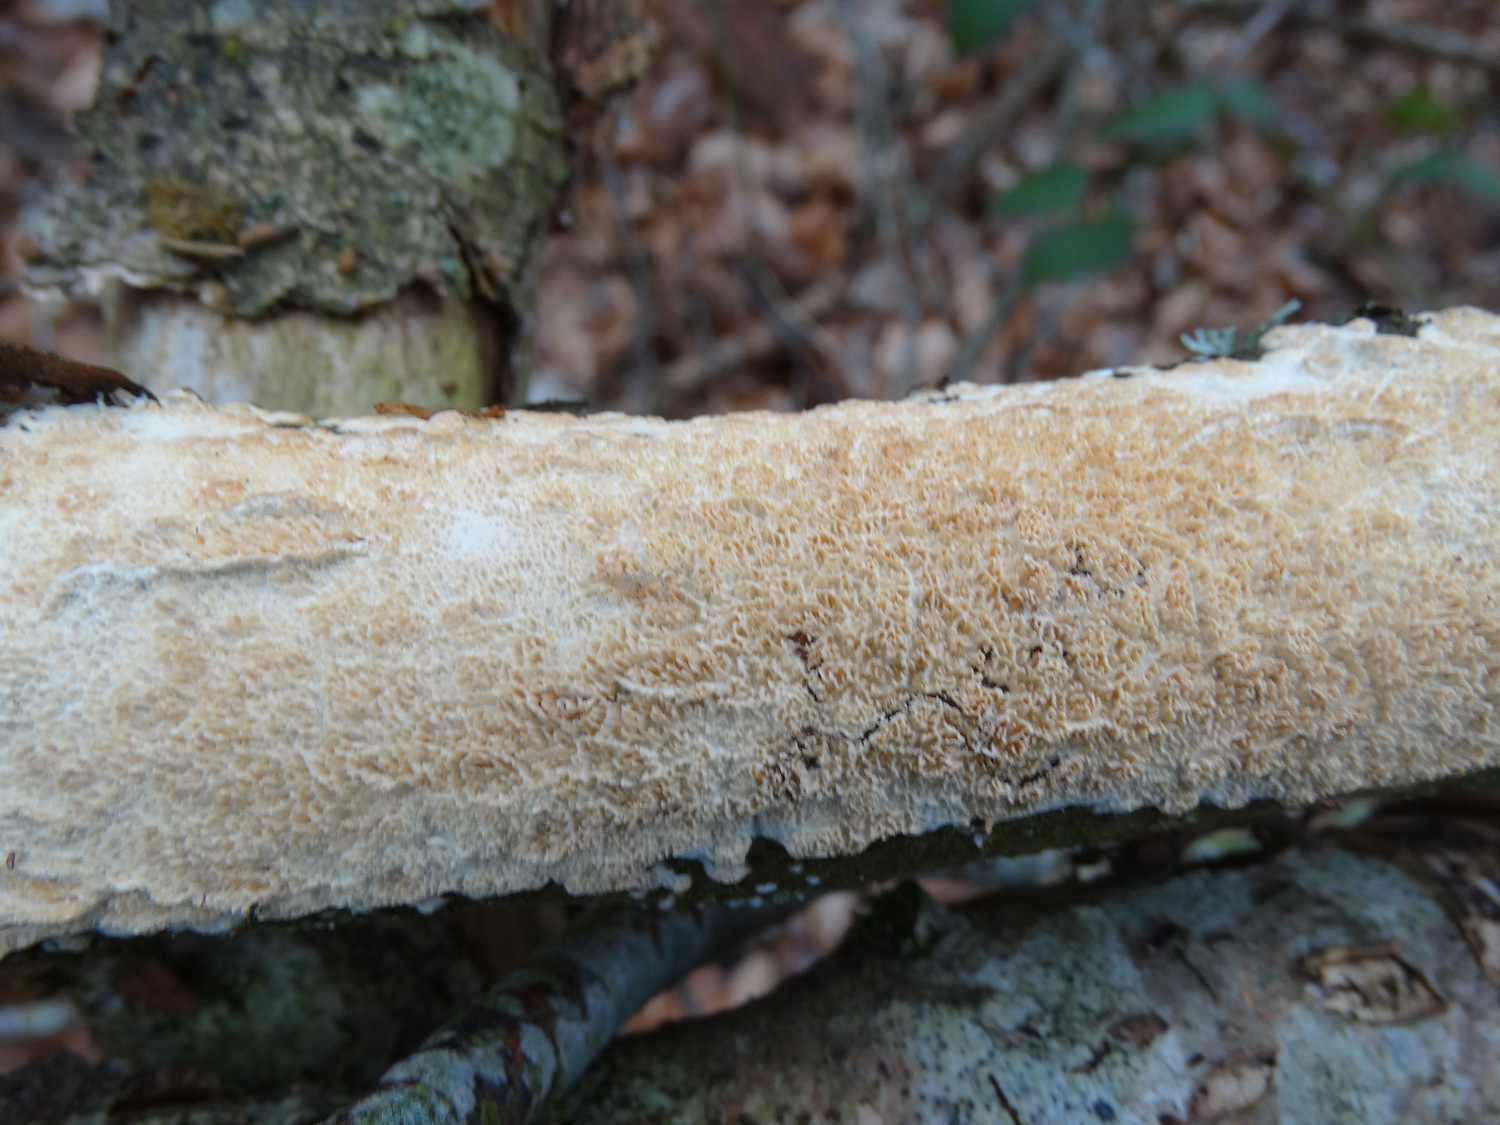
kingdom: Fungi
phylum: Basidiomycota
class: Agaricomycetes
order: Hymenochaetales
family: Schizoporaceae
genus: Schizopora
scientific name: Schizopora paradoxa
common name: hvid tandsvamp
